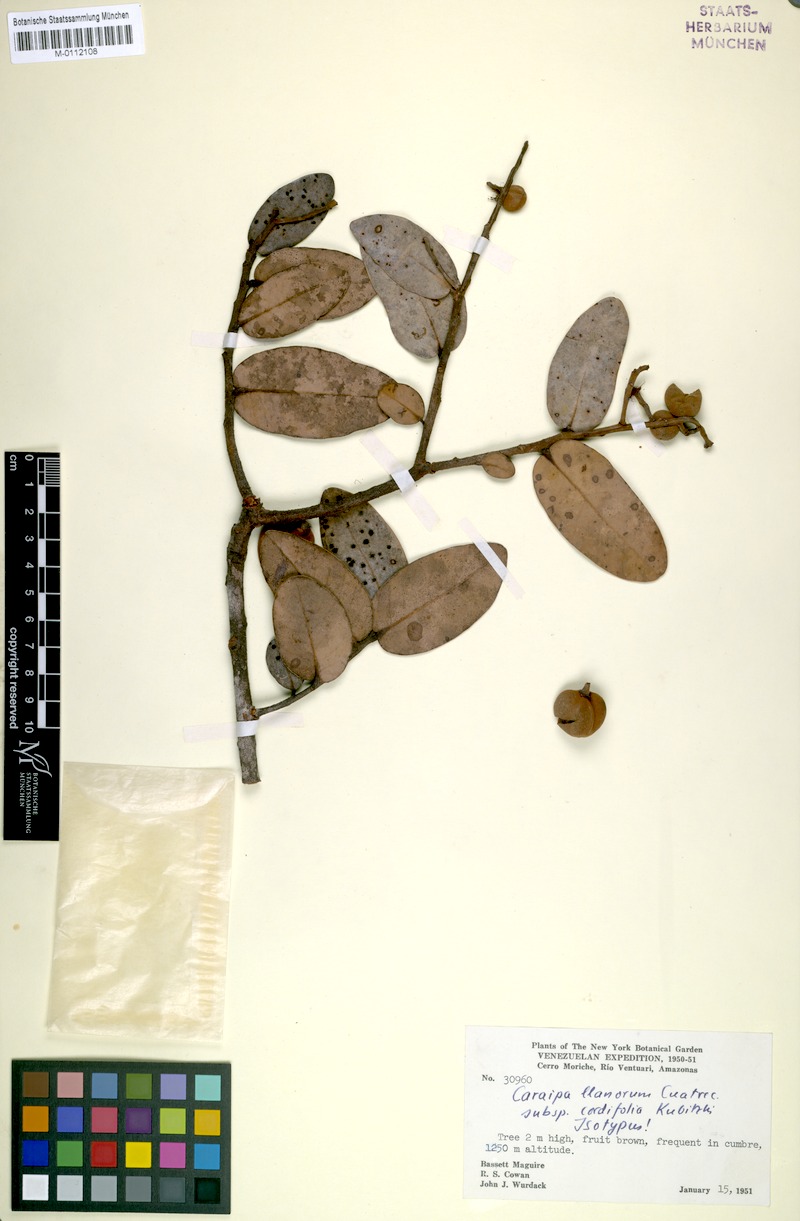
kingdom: Plantae
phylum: Tracheophyta
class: Magnoliopsida
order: Malpighiales
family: Calophyllaceae
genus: Caraipa
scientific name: Caraipa llanorum
